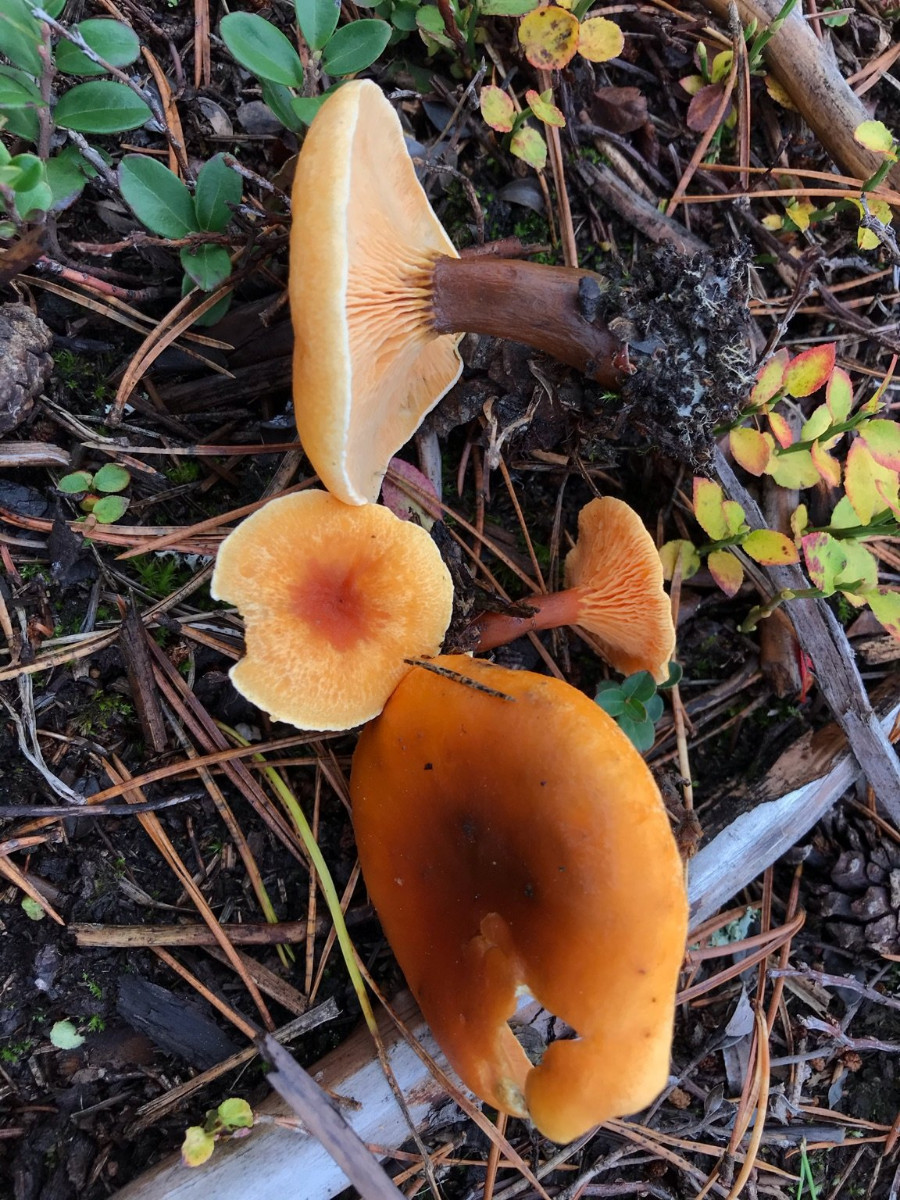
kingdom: Fungi
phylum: Basidiomycota
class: Agaricomycetes
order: Boletales
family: Hygrophoropsidaceae
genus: Hygrophoropsis
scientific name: Hygrophoropsis aurantiaca
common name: almindelig orangekantarel
